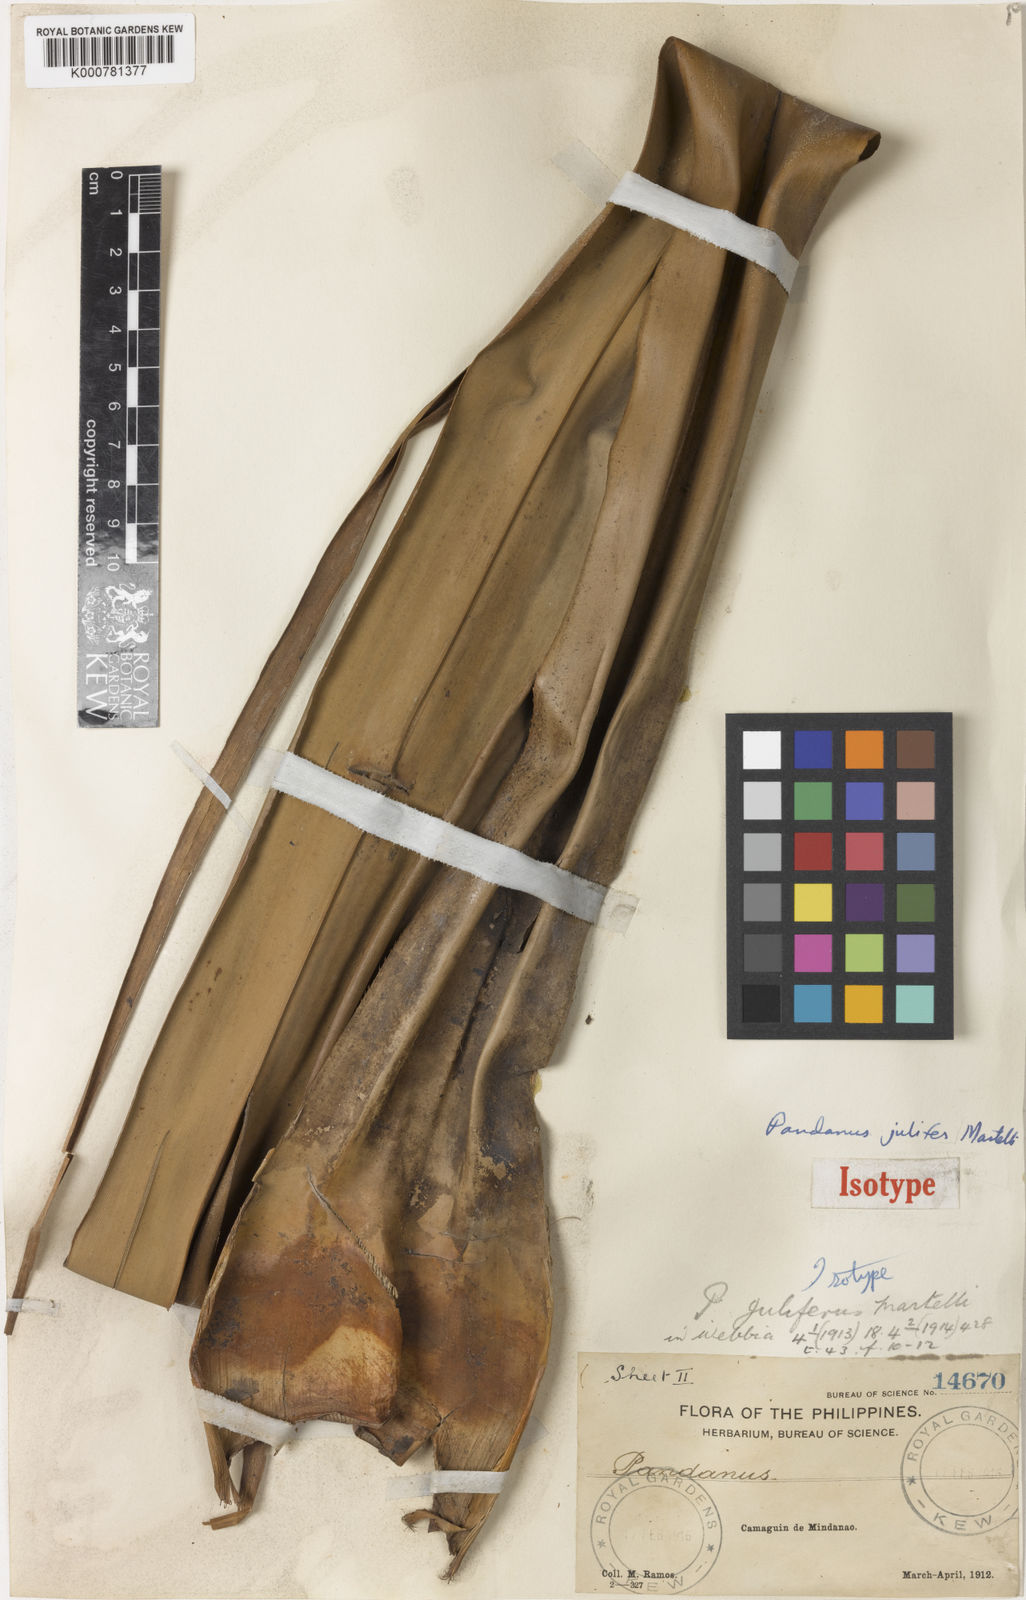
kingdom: Plantae
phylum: Tracheophyta
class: Liliopsida
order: Pandanales
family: Pandanaceae
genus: Pandanus
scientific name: Pandanus
